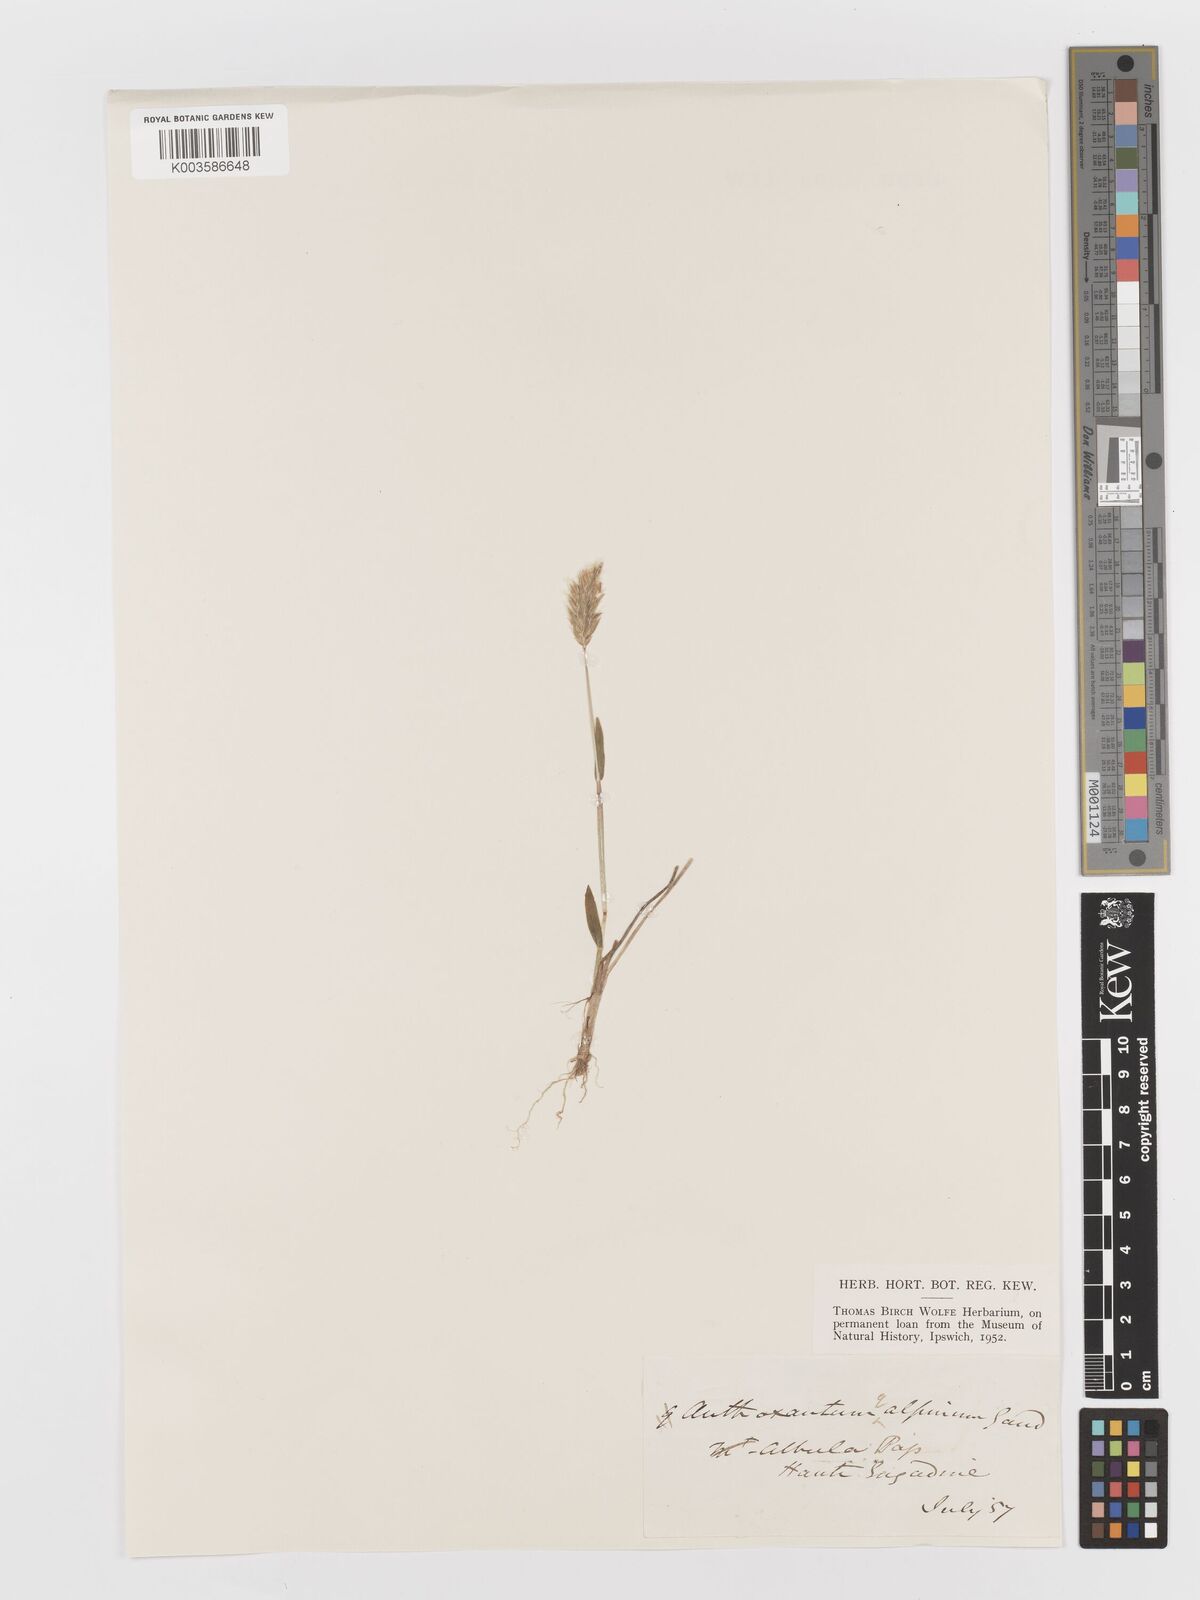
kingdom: Plantae
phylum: Tracheophyta
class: Liliopsida
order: Poales
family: Poaceae
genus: Anthoxanthum
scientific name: Anthoxanthum odoratum
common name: Sweet vernalgrass
